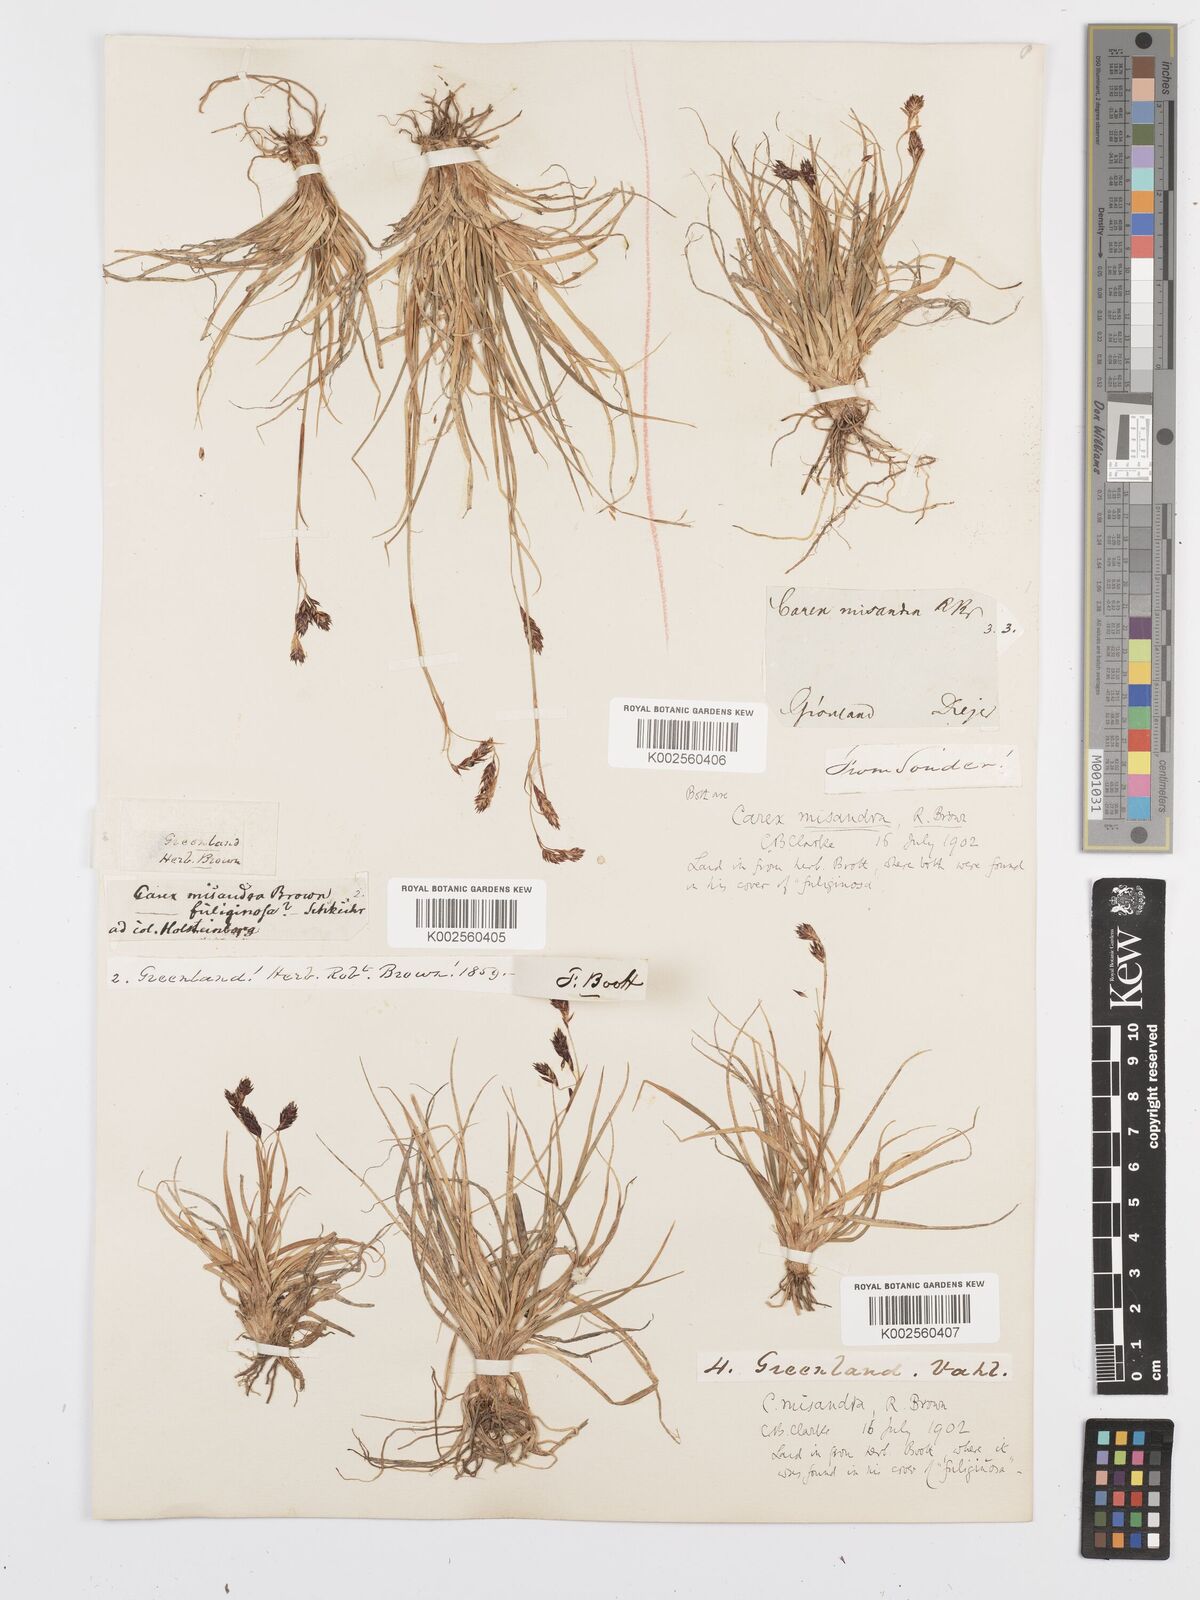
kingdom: Plantae
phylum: Tracheophyta
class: Liliopsida
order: Poales
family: Cyperaceae
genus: Carex
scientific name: Carex fuliginosa
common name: Few-flowered sedge
